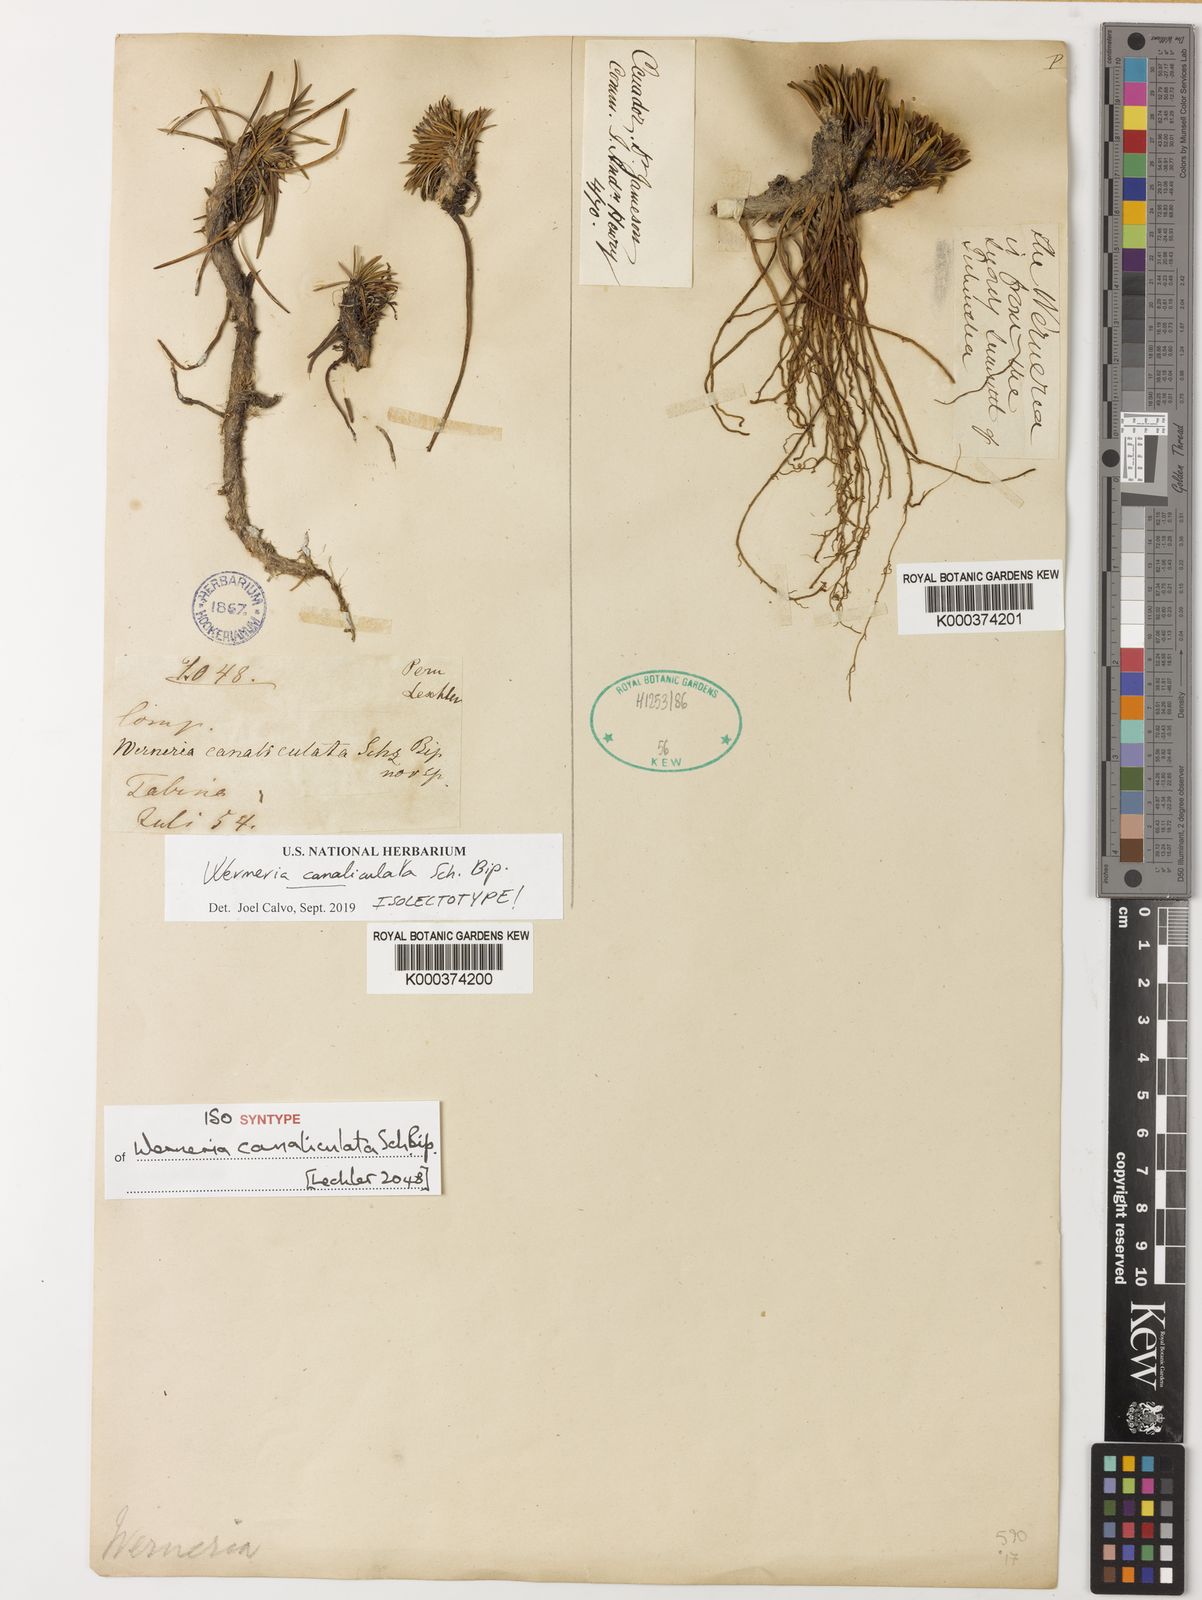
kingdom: Plantae
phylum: Tracheophyta
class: Magnoliopsida
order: Asterales
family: Asteraceae
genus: Rockhausenia
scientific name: Rockhausenia canaliculata
